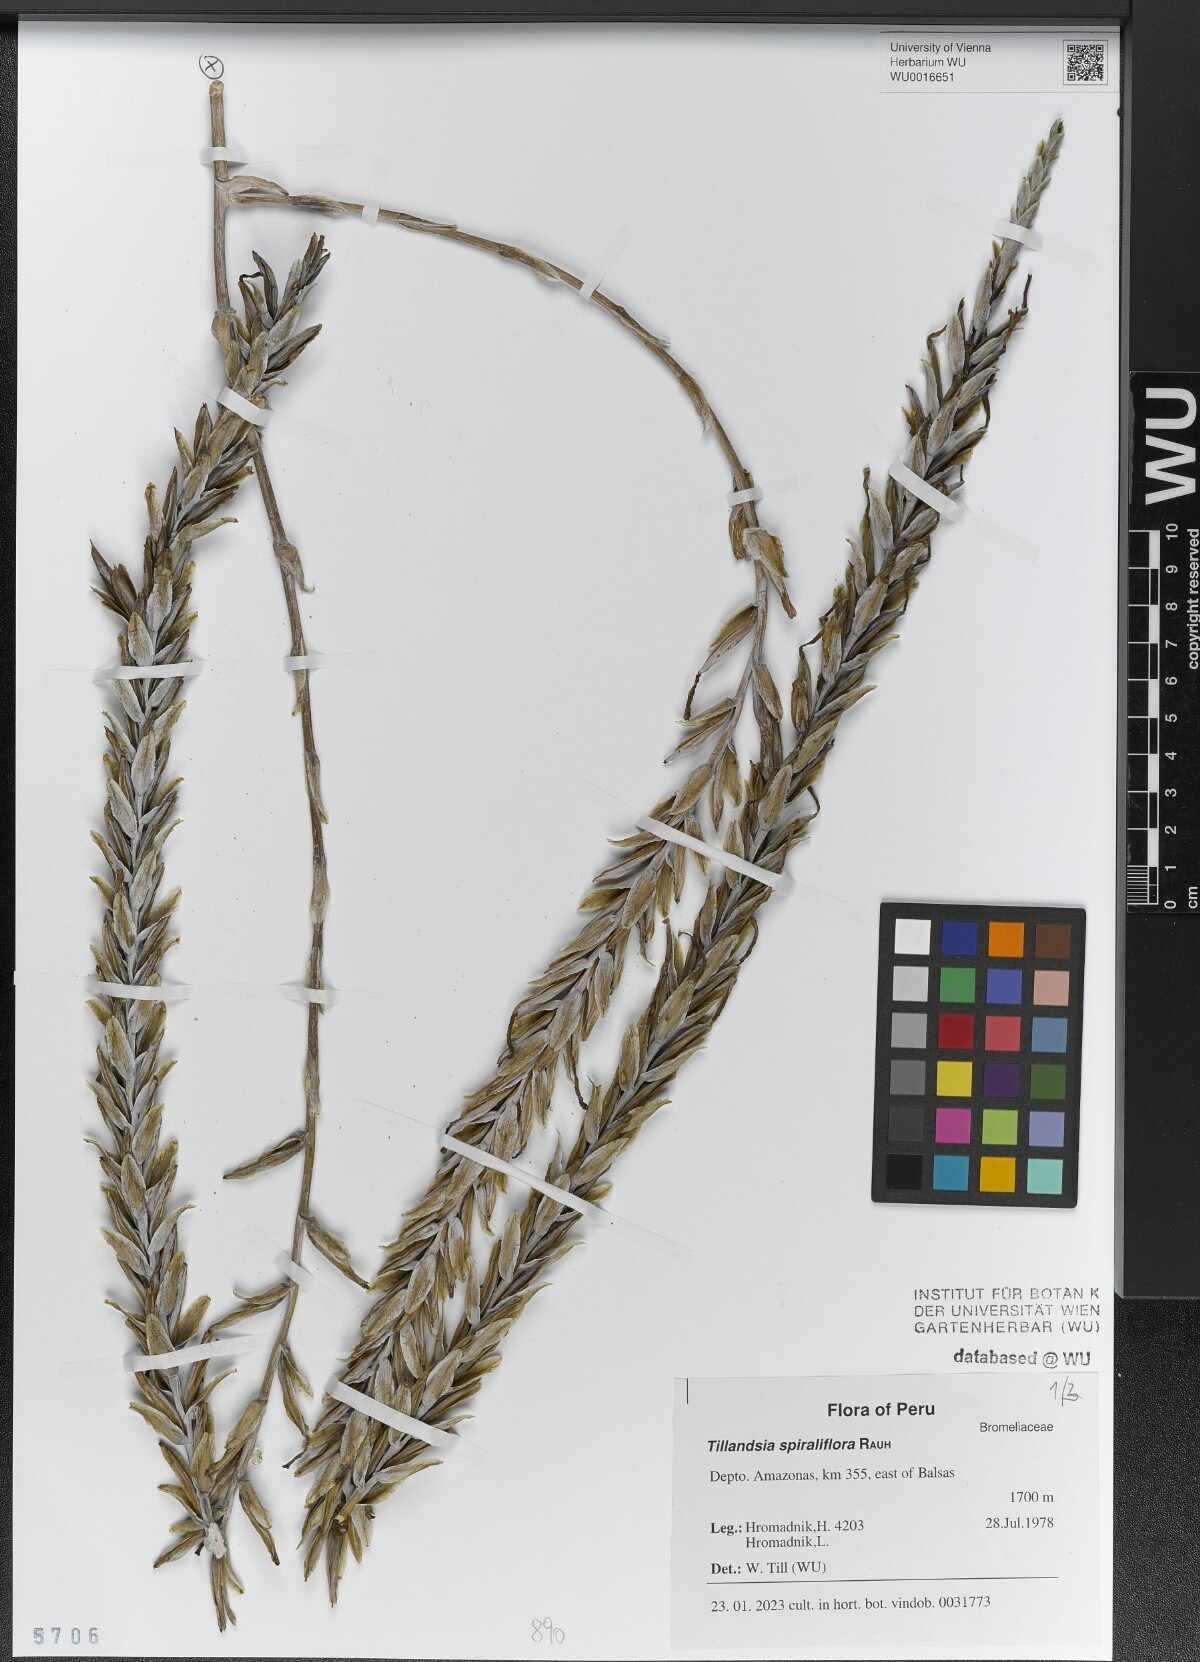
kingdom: Plantae
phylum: Tracheophyta
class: Liliopsida
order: Poales
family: Bromeliaceae
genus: Tillandsia
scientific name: Tillandsia spiraliflora
